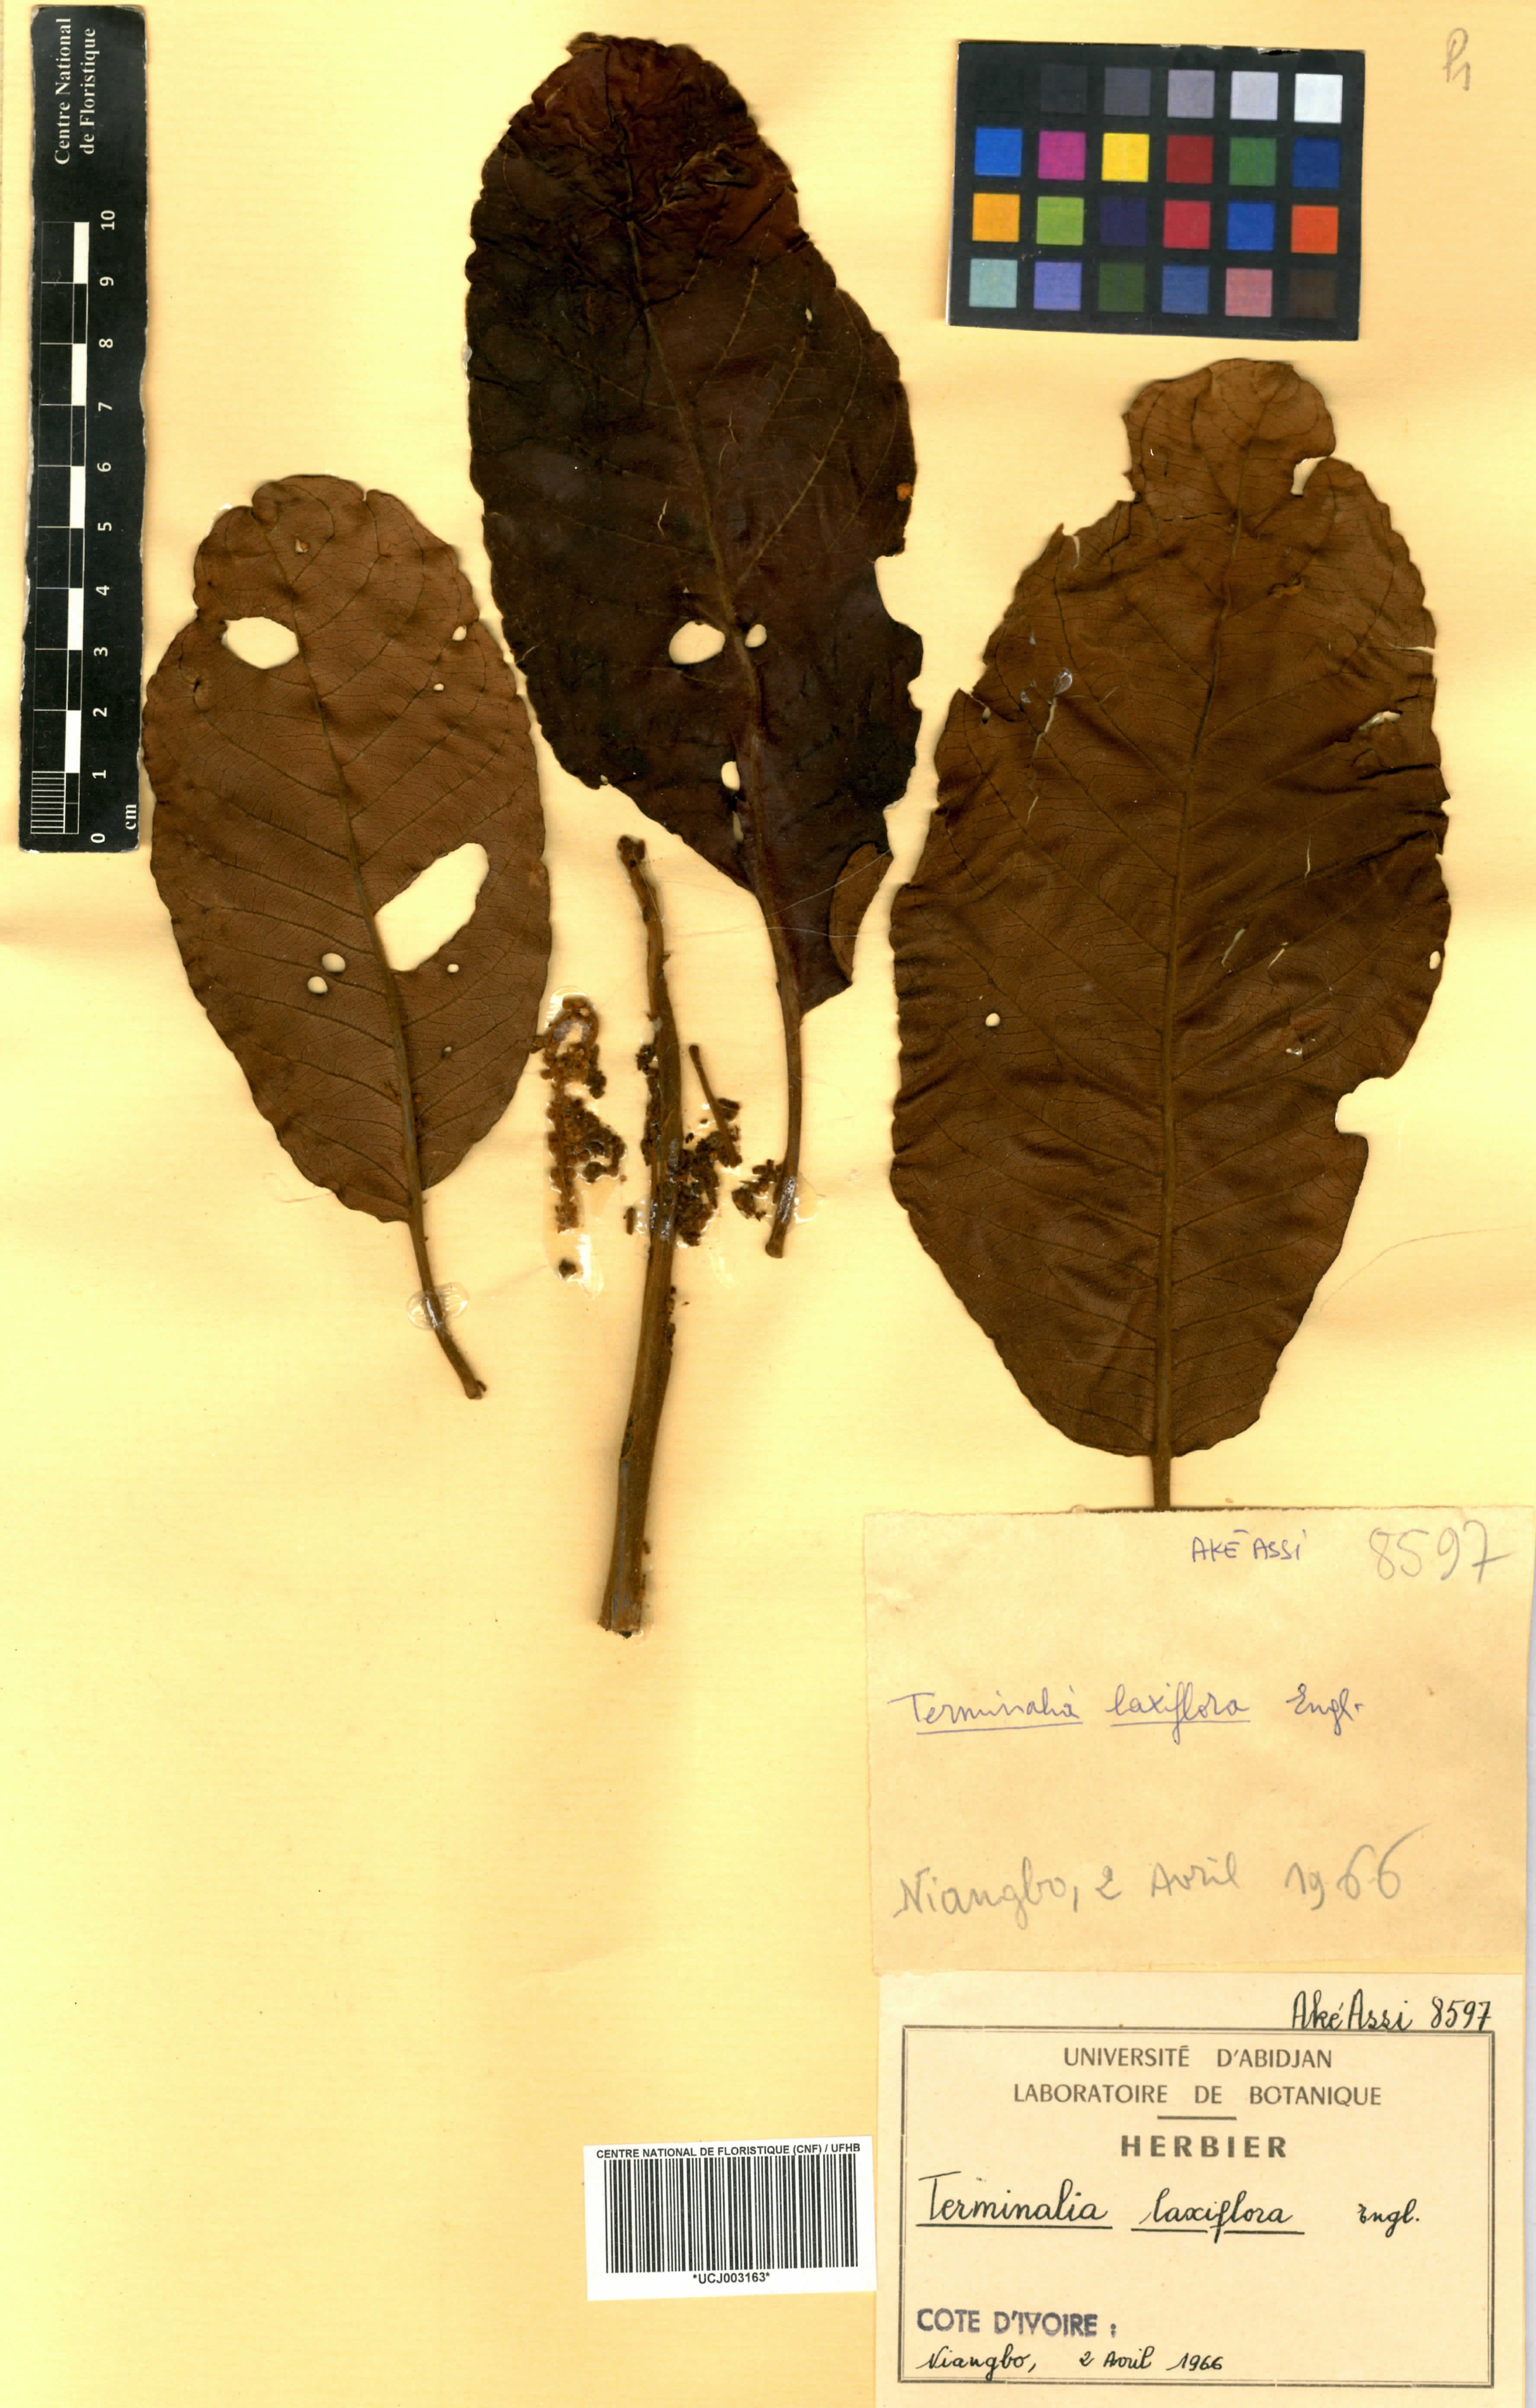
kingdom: Plantae
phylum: Tracheophyta
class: Magnoliopsida
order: Myrtales
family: Combretaceae
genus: Terminalia
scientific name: Terminalia laxiflora
